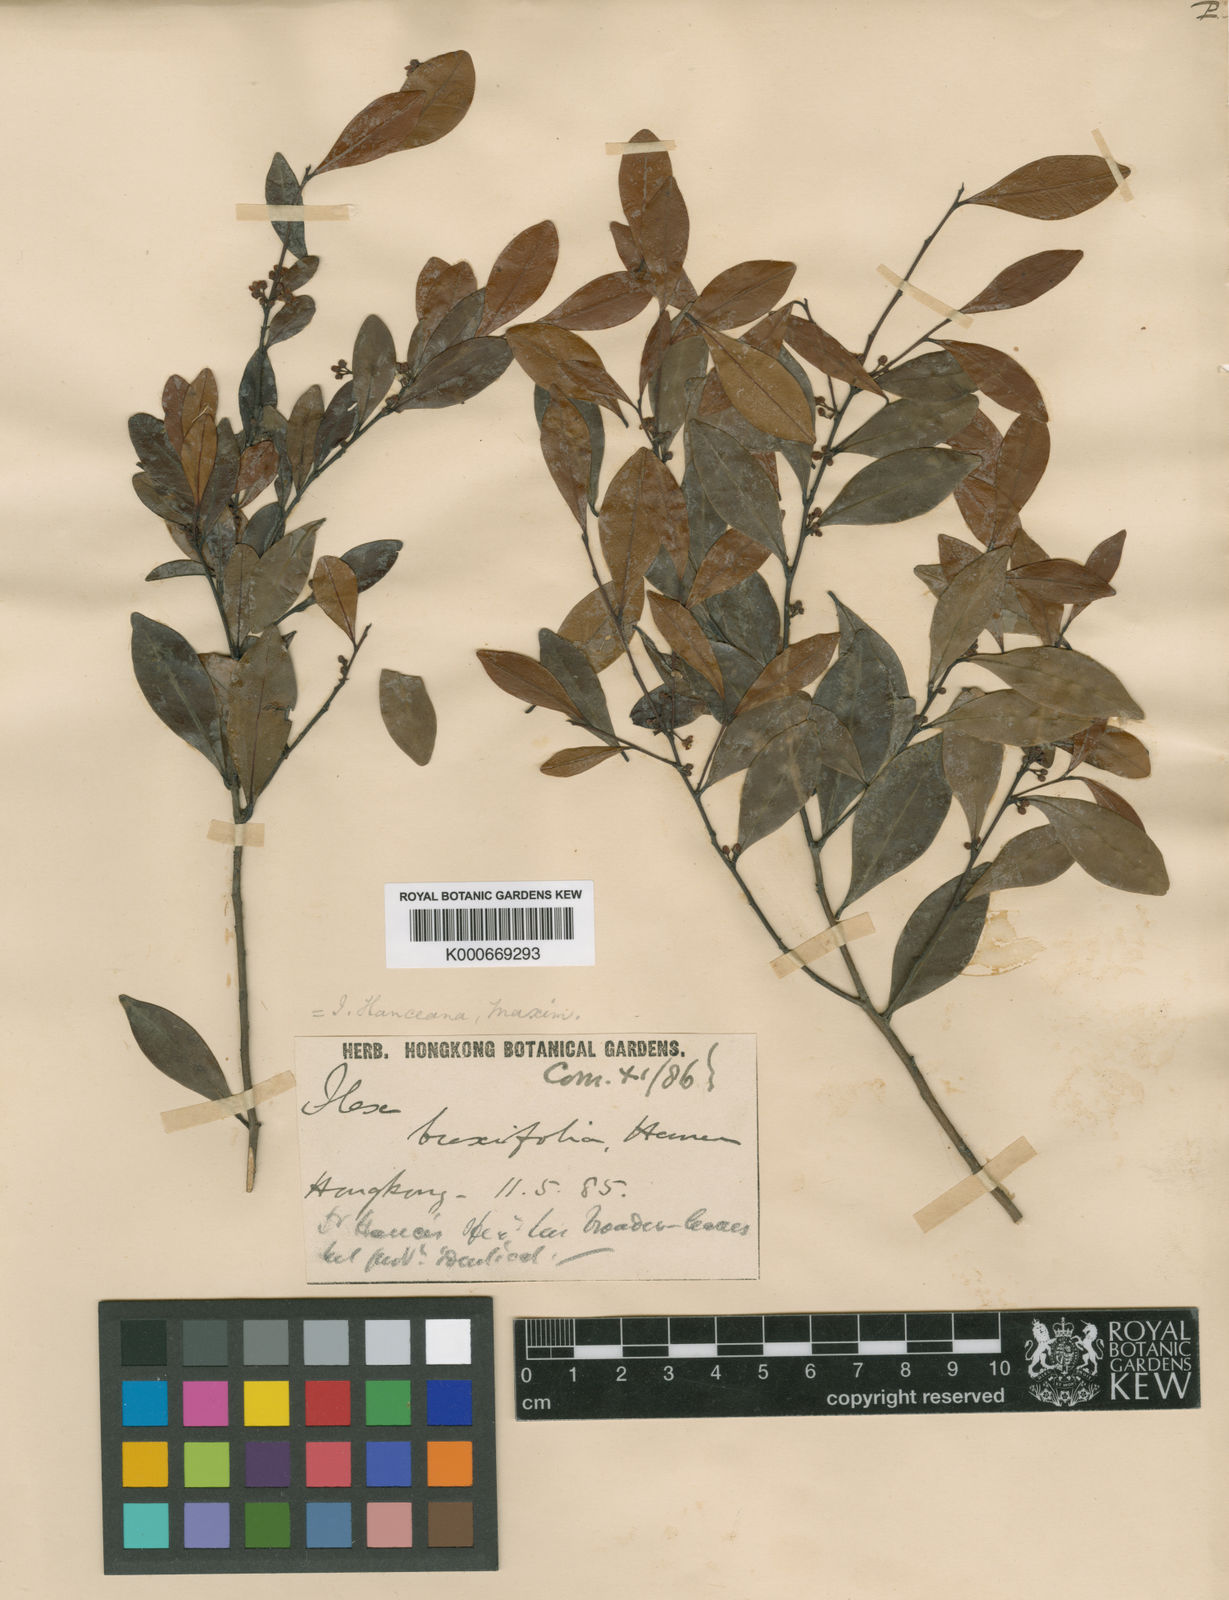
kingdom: Plantae
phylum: Tracheophyta
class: Magnoliopsida
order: Aquifoliales
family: Aquifoliaceae
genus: Ilex
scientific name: Ilex hanceana
